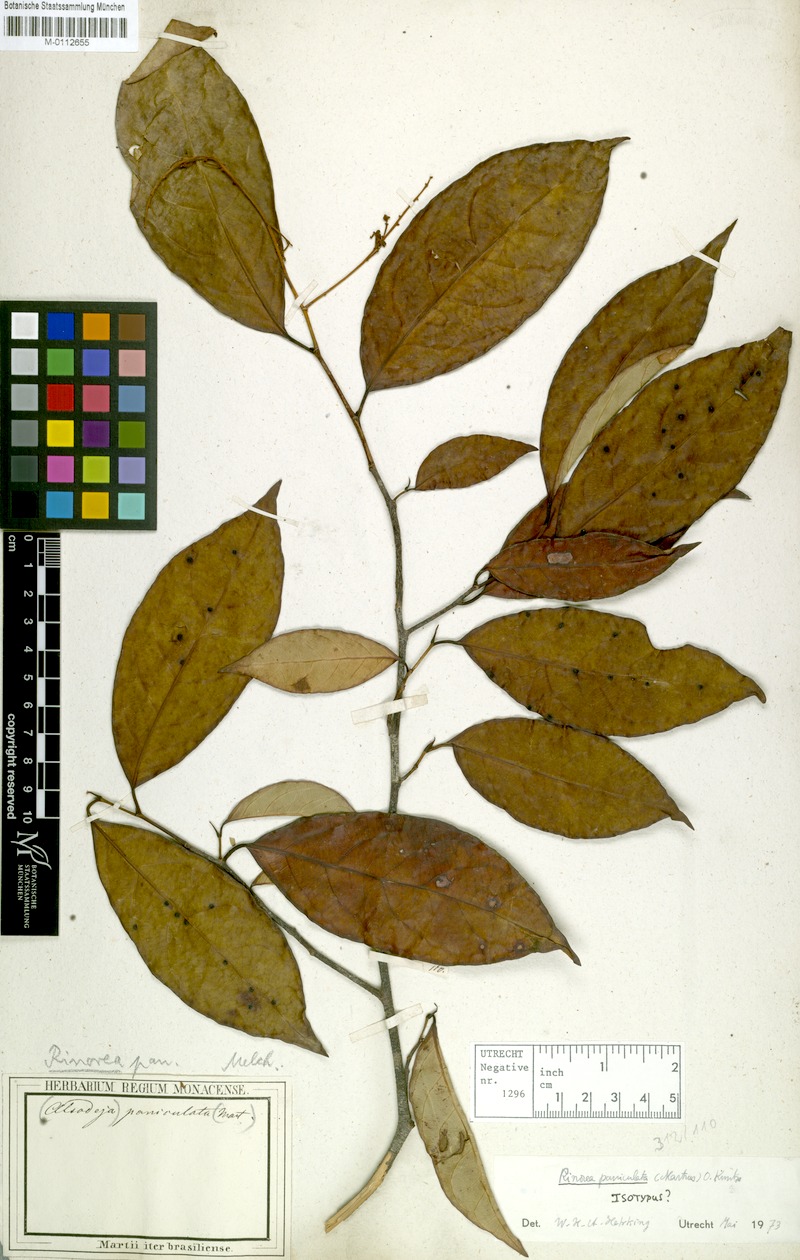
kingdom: Plantae
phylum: Tracheophyta
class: Magnoliopsida
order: Malpighiales
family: Violaceae
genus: Rinorea
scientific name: Rinorea paniculata
